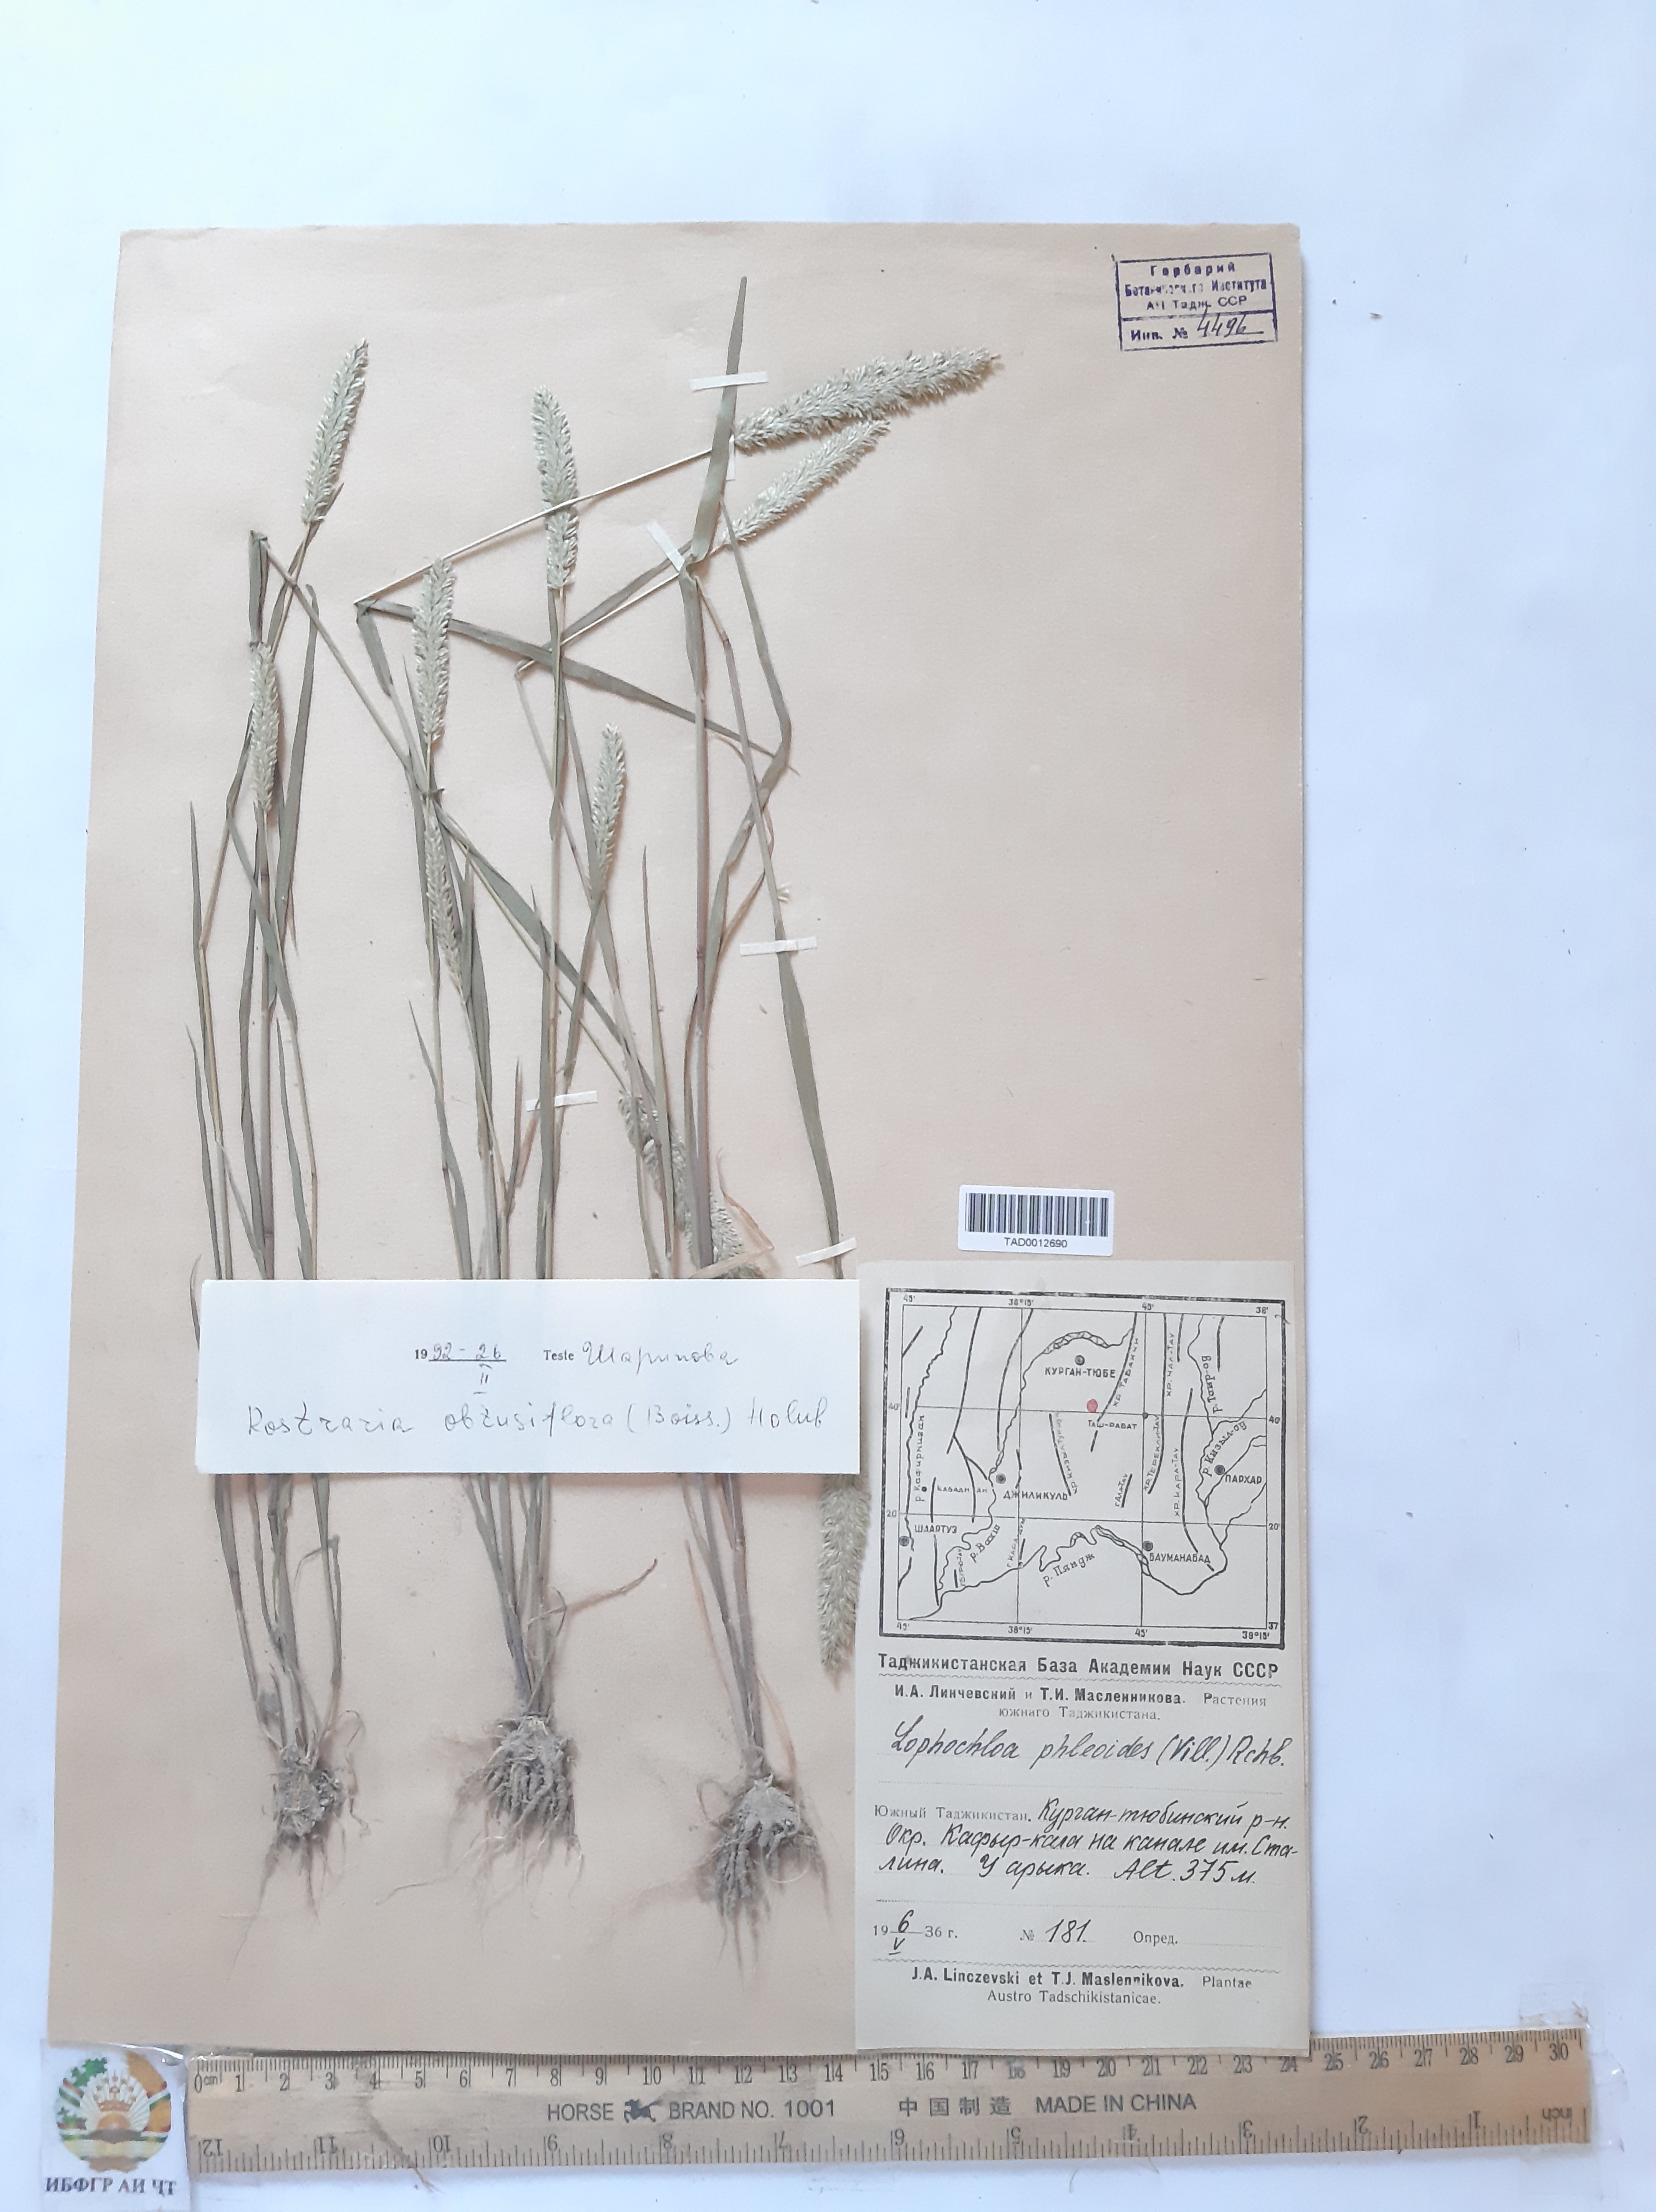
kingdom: Plantae
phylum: Tracheophyta
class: Liliopsida
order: Poales
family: Poaceae
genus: Rostraria
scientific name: Rostraria obtusiflora
